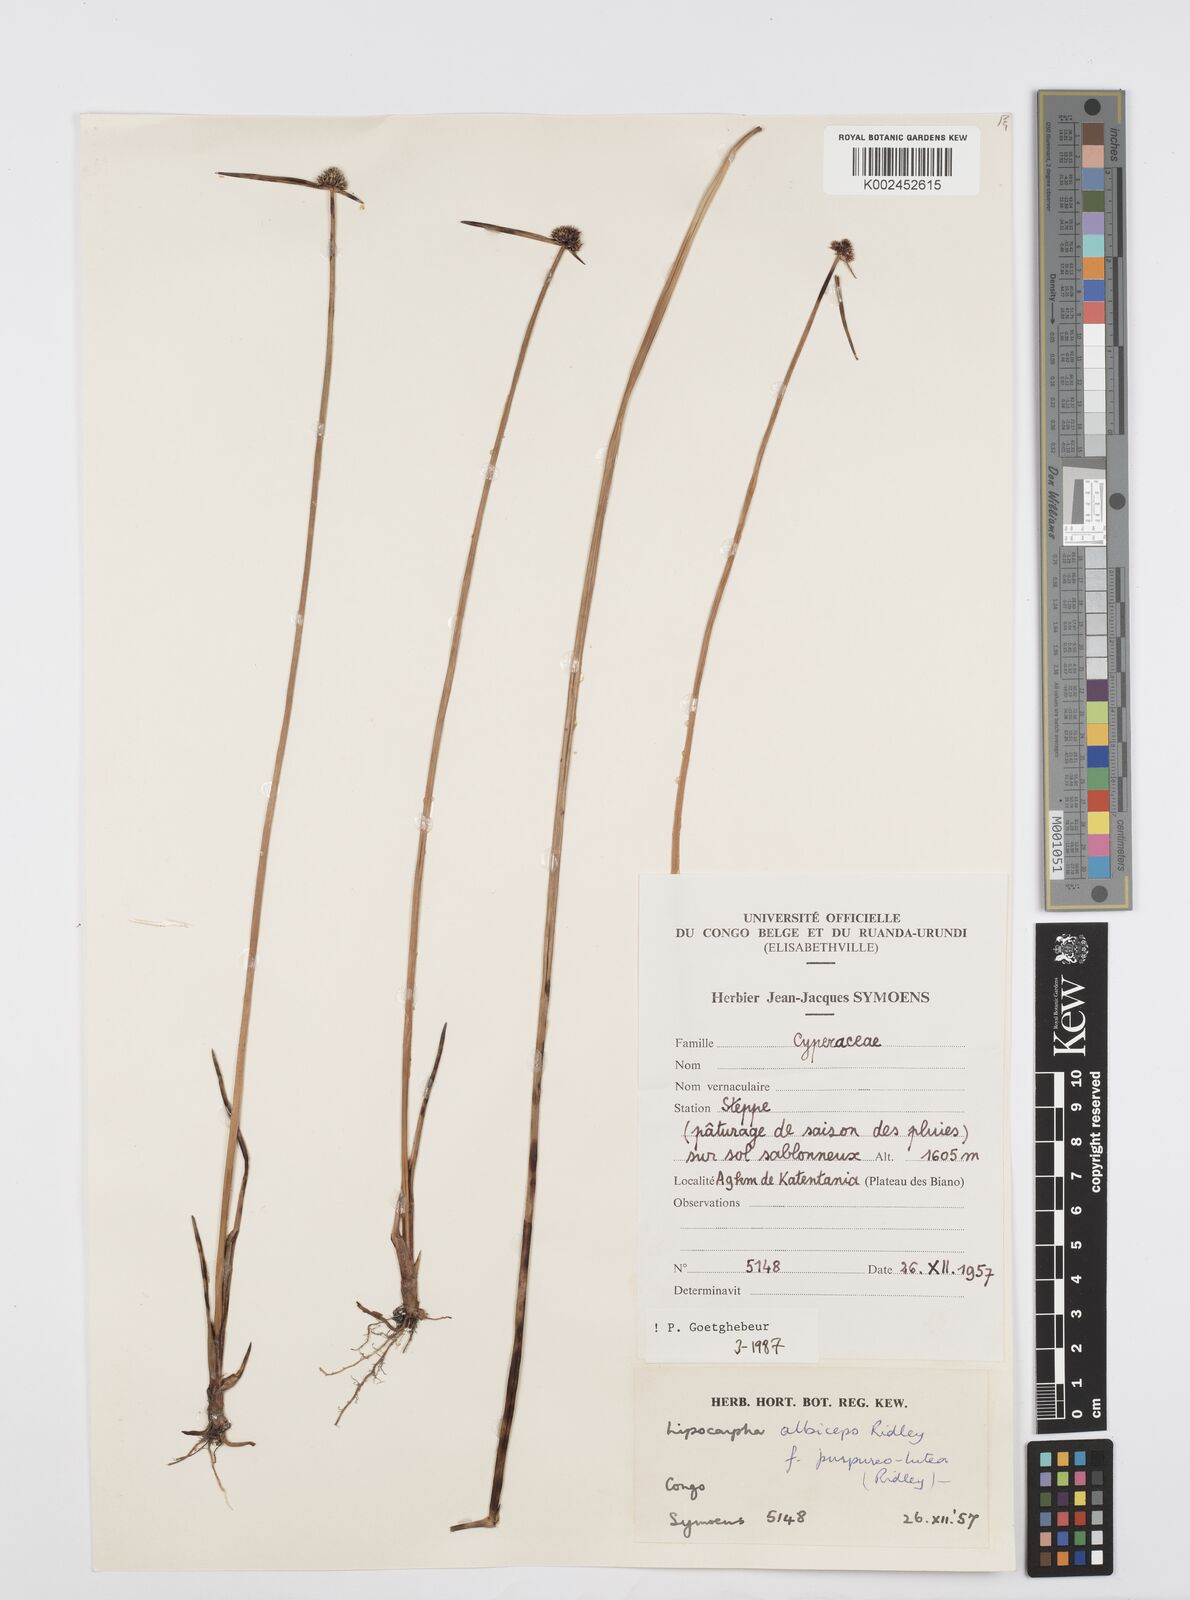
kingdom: Plantae
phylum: Tracheophyta
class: Liliopsida
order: Poales
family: Cyperaceae
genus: Cyperus
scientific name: Cyperus albiceps
